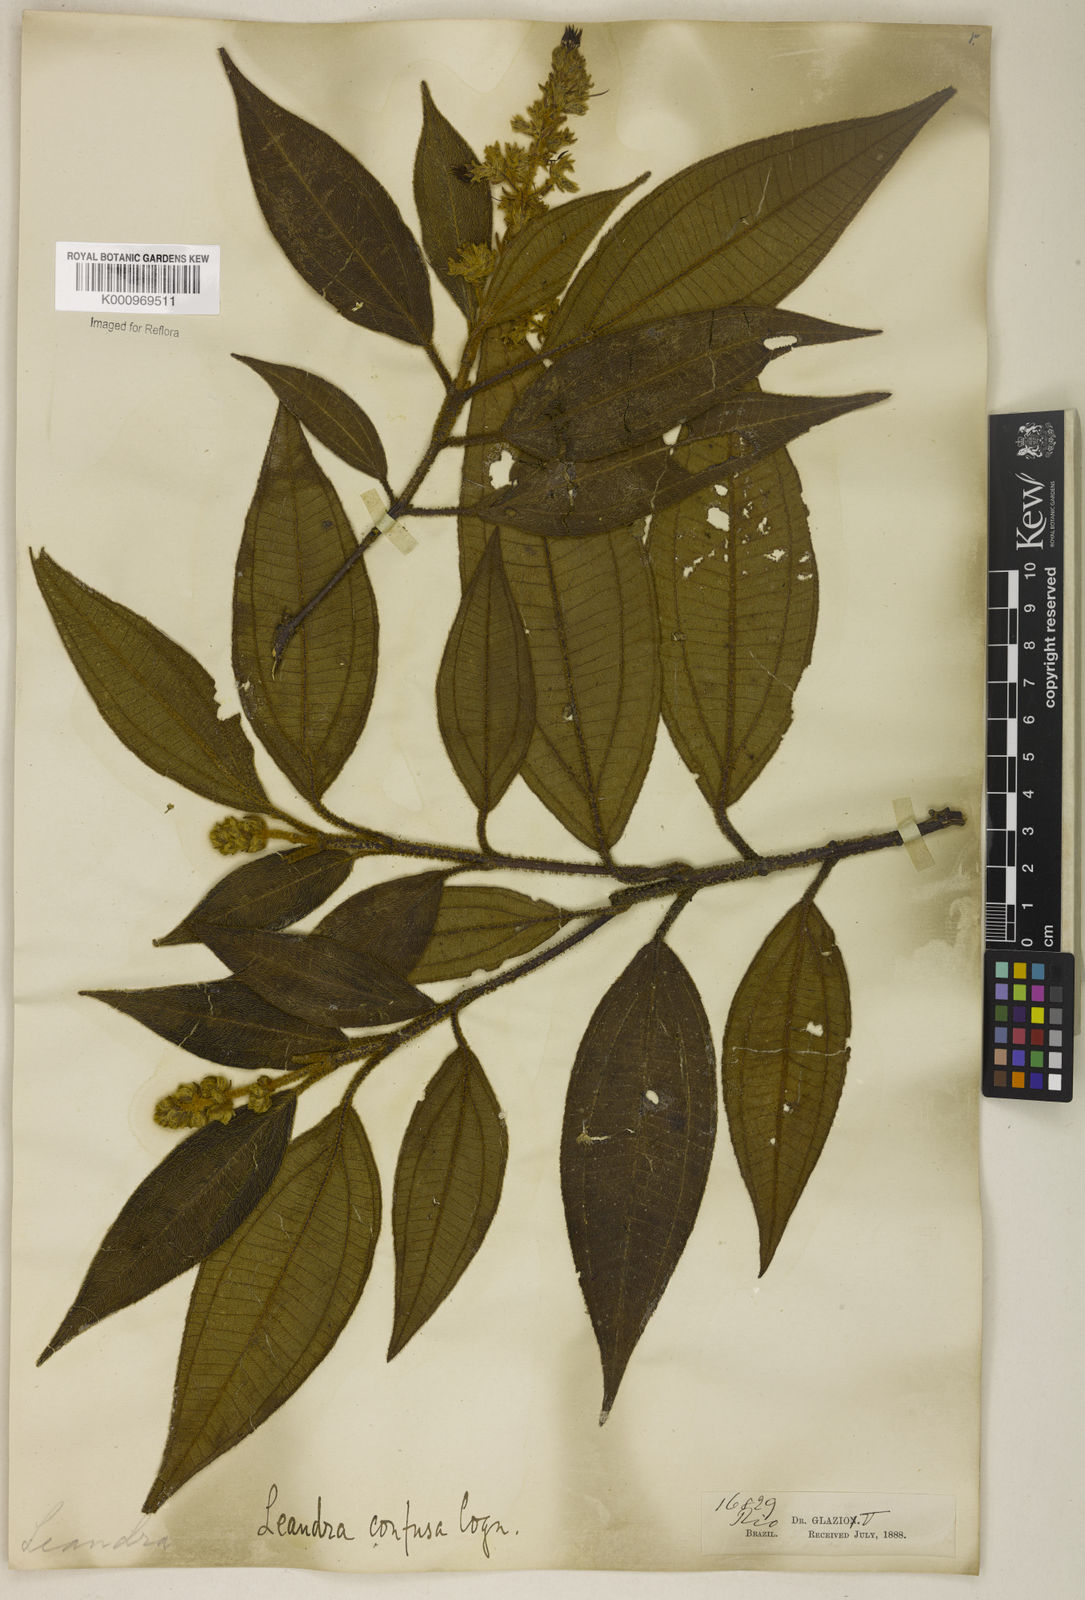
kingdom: Plantae
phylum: Tracheophyta
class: Magnoliopsida
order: Myrtales
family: Melastomataceae
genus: Miconia
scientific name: Miconia leaconfusa
